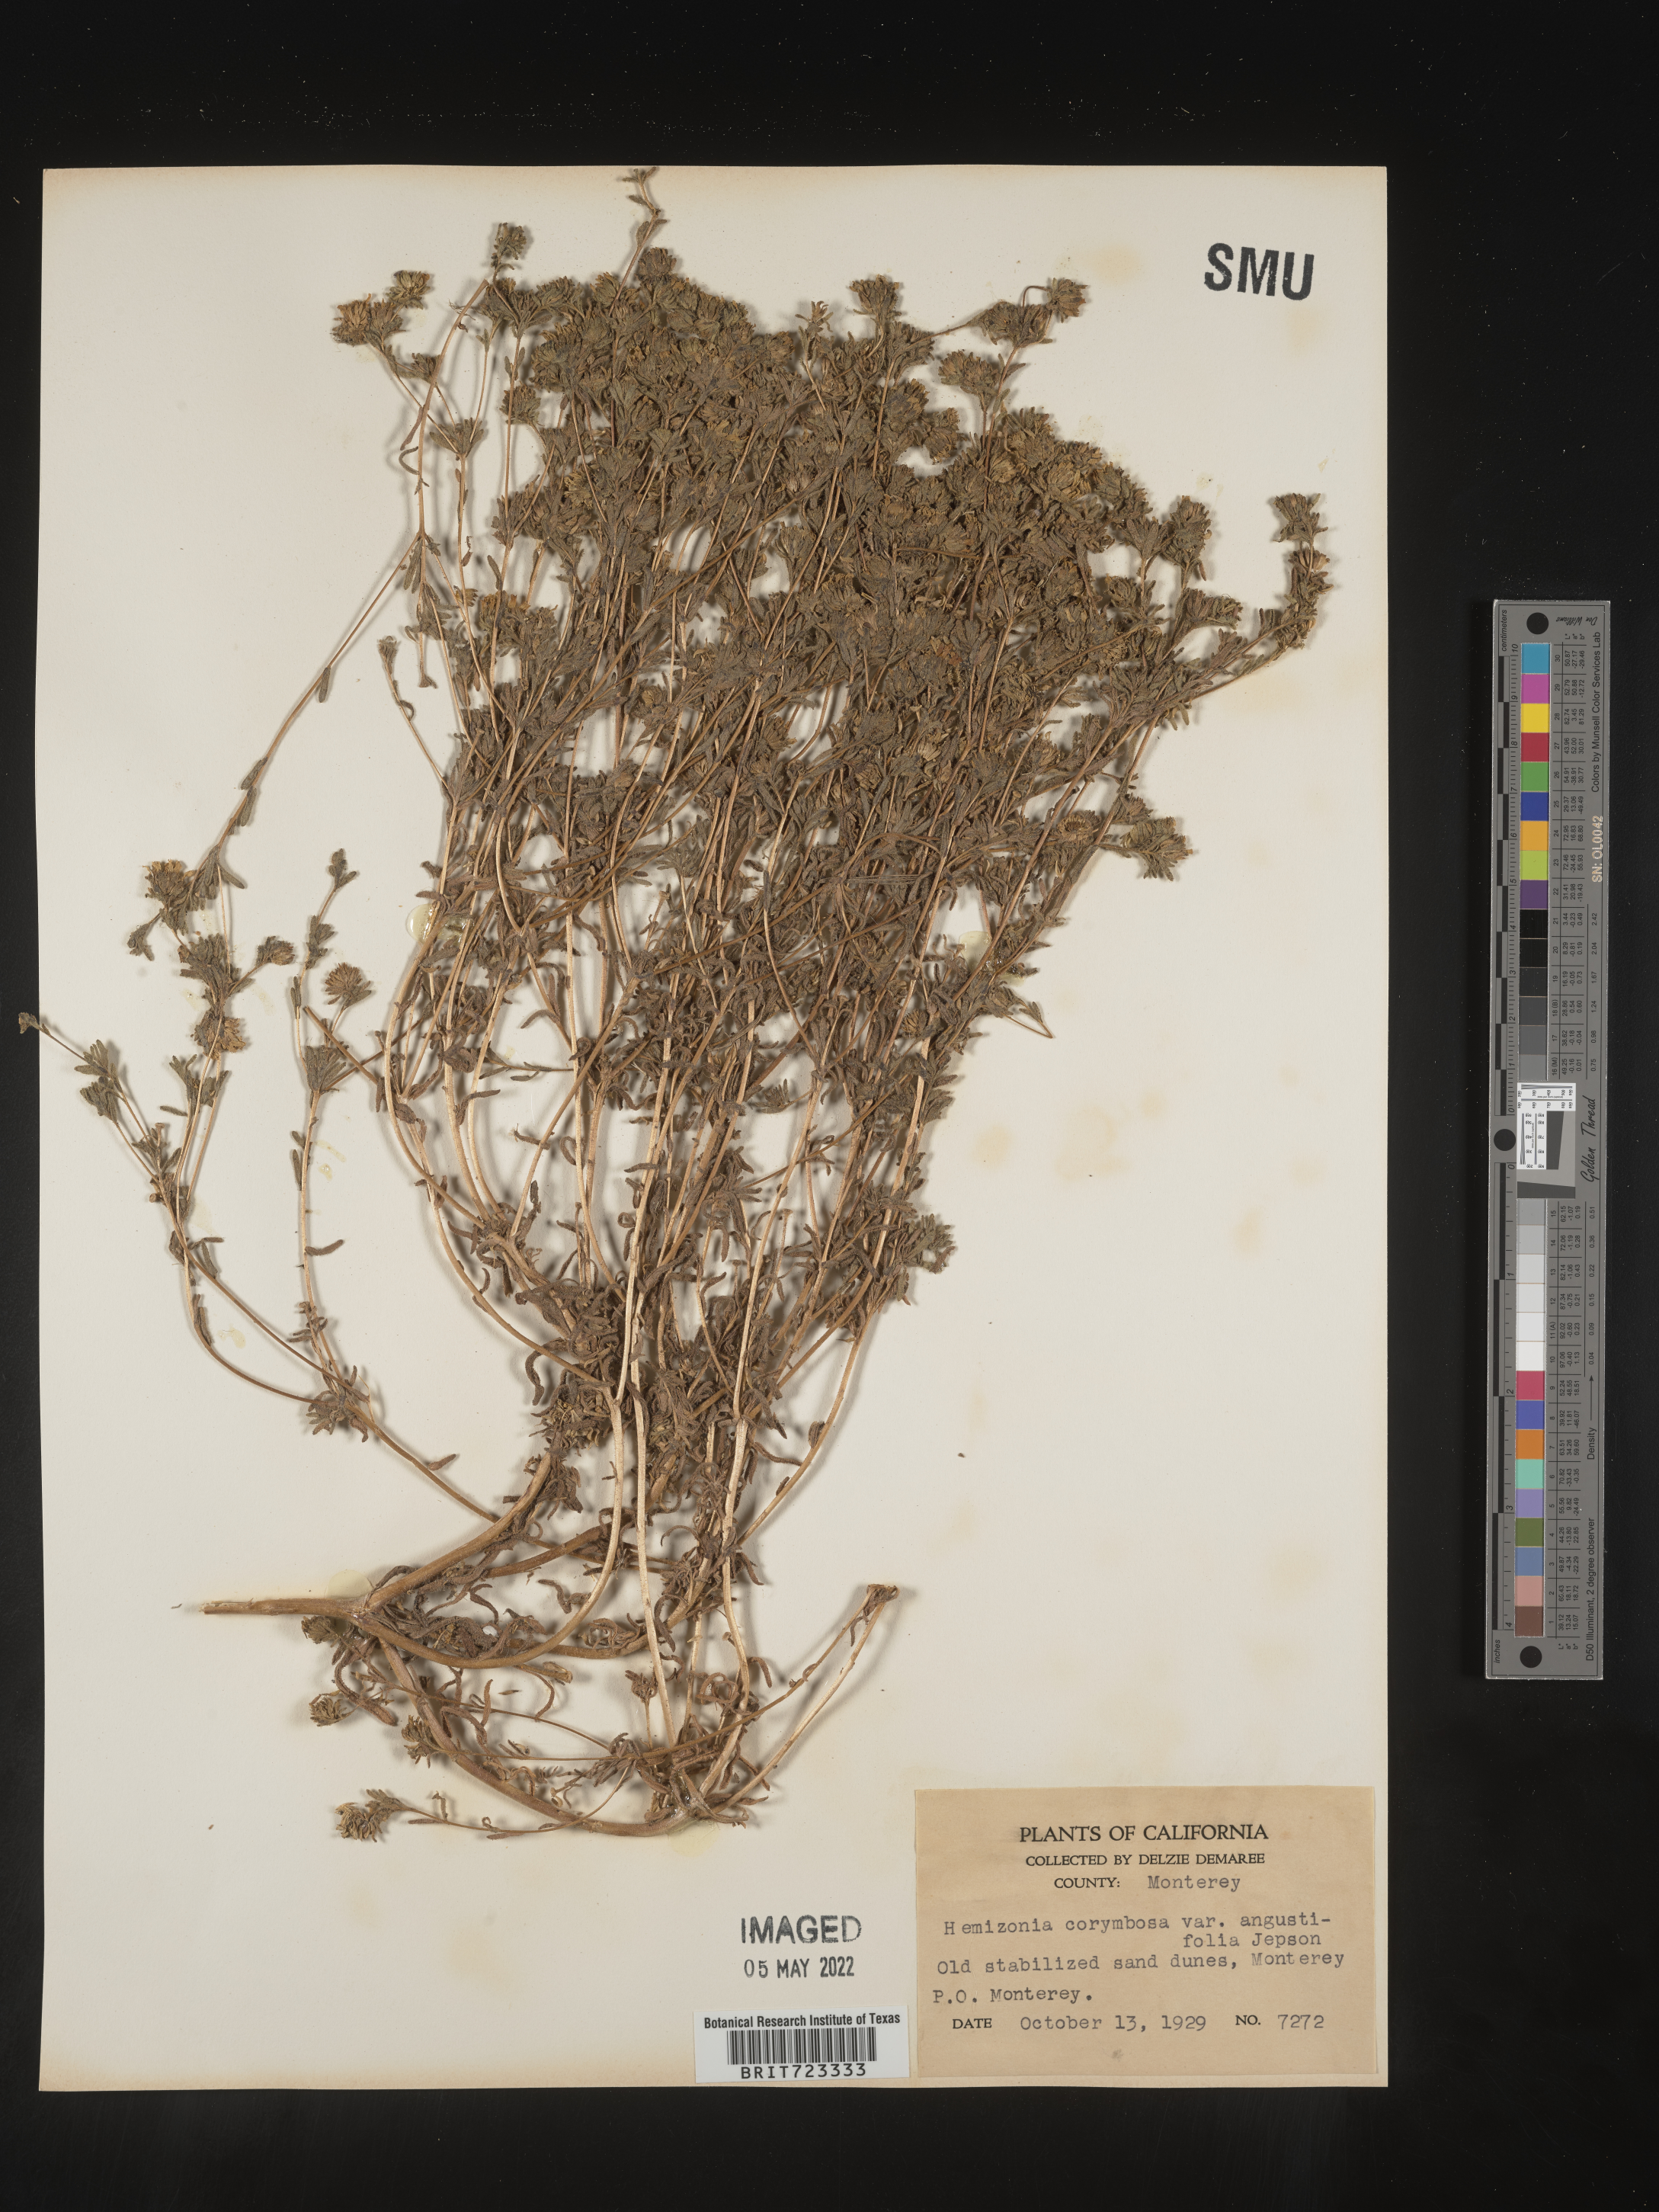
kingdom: Plantae
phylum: Tracheophyta
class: Magnoliopsida
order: Asterales
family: Asteraceae
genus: Hemizonia
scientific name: Hemizonia
